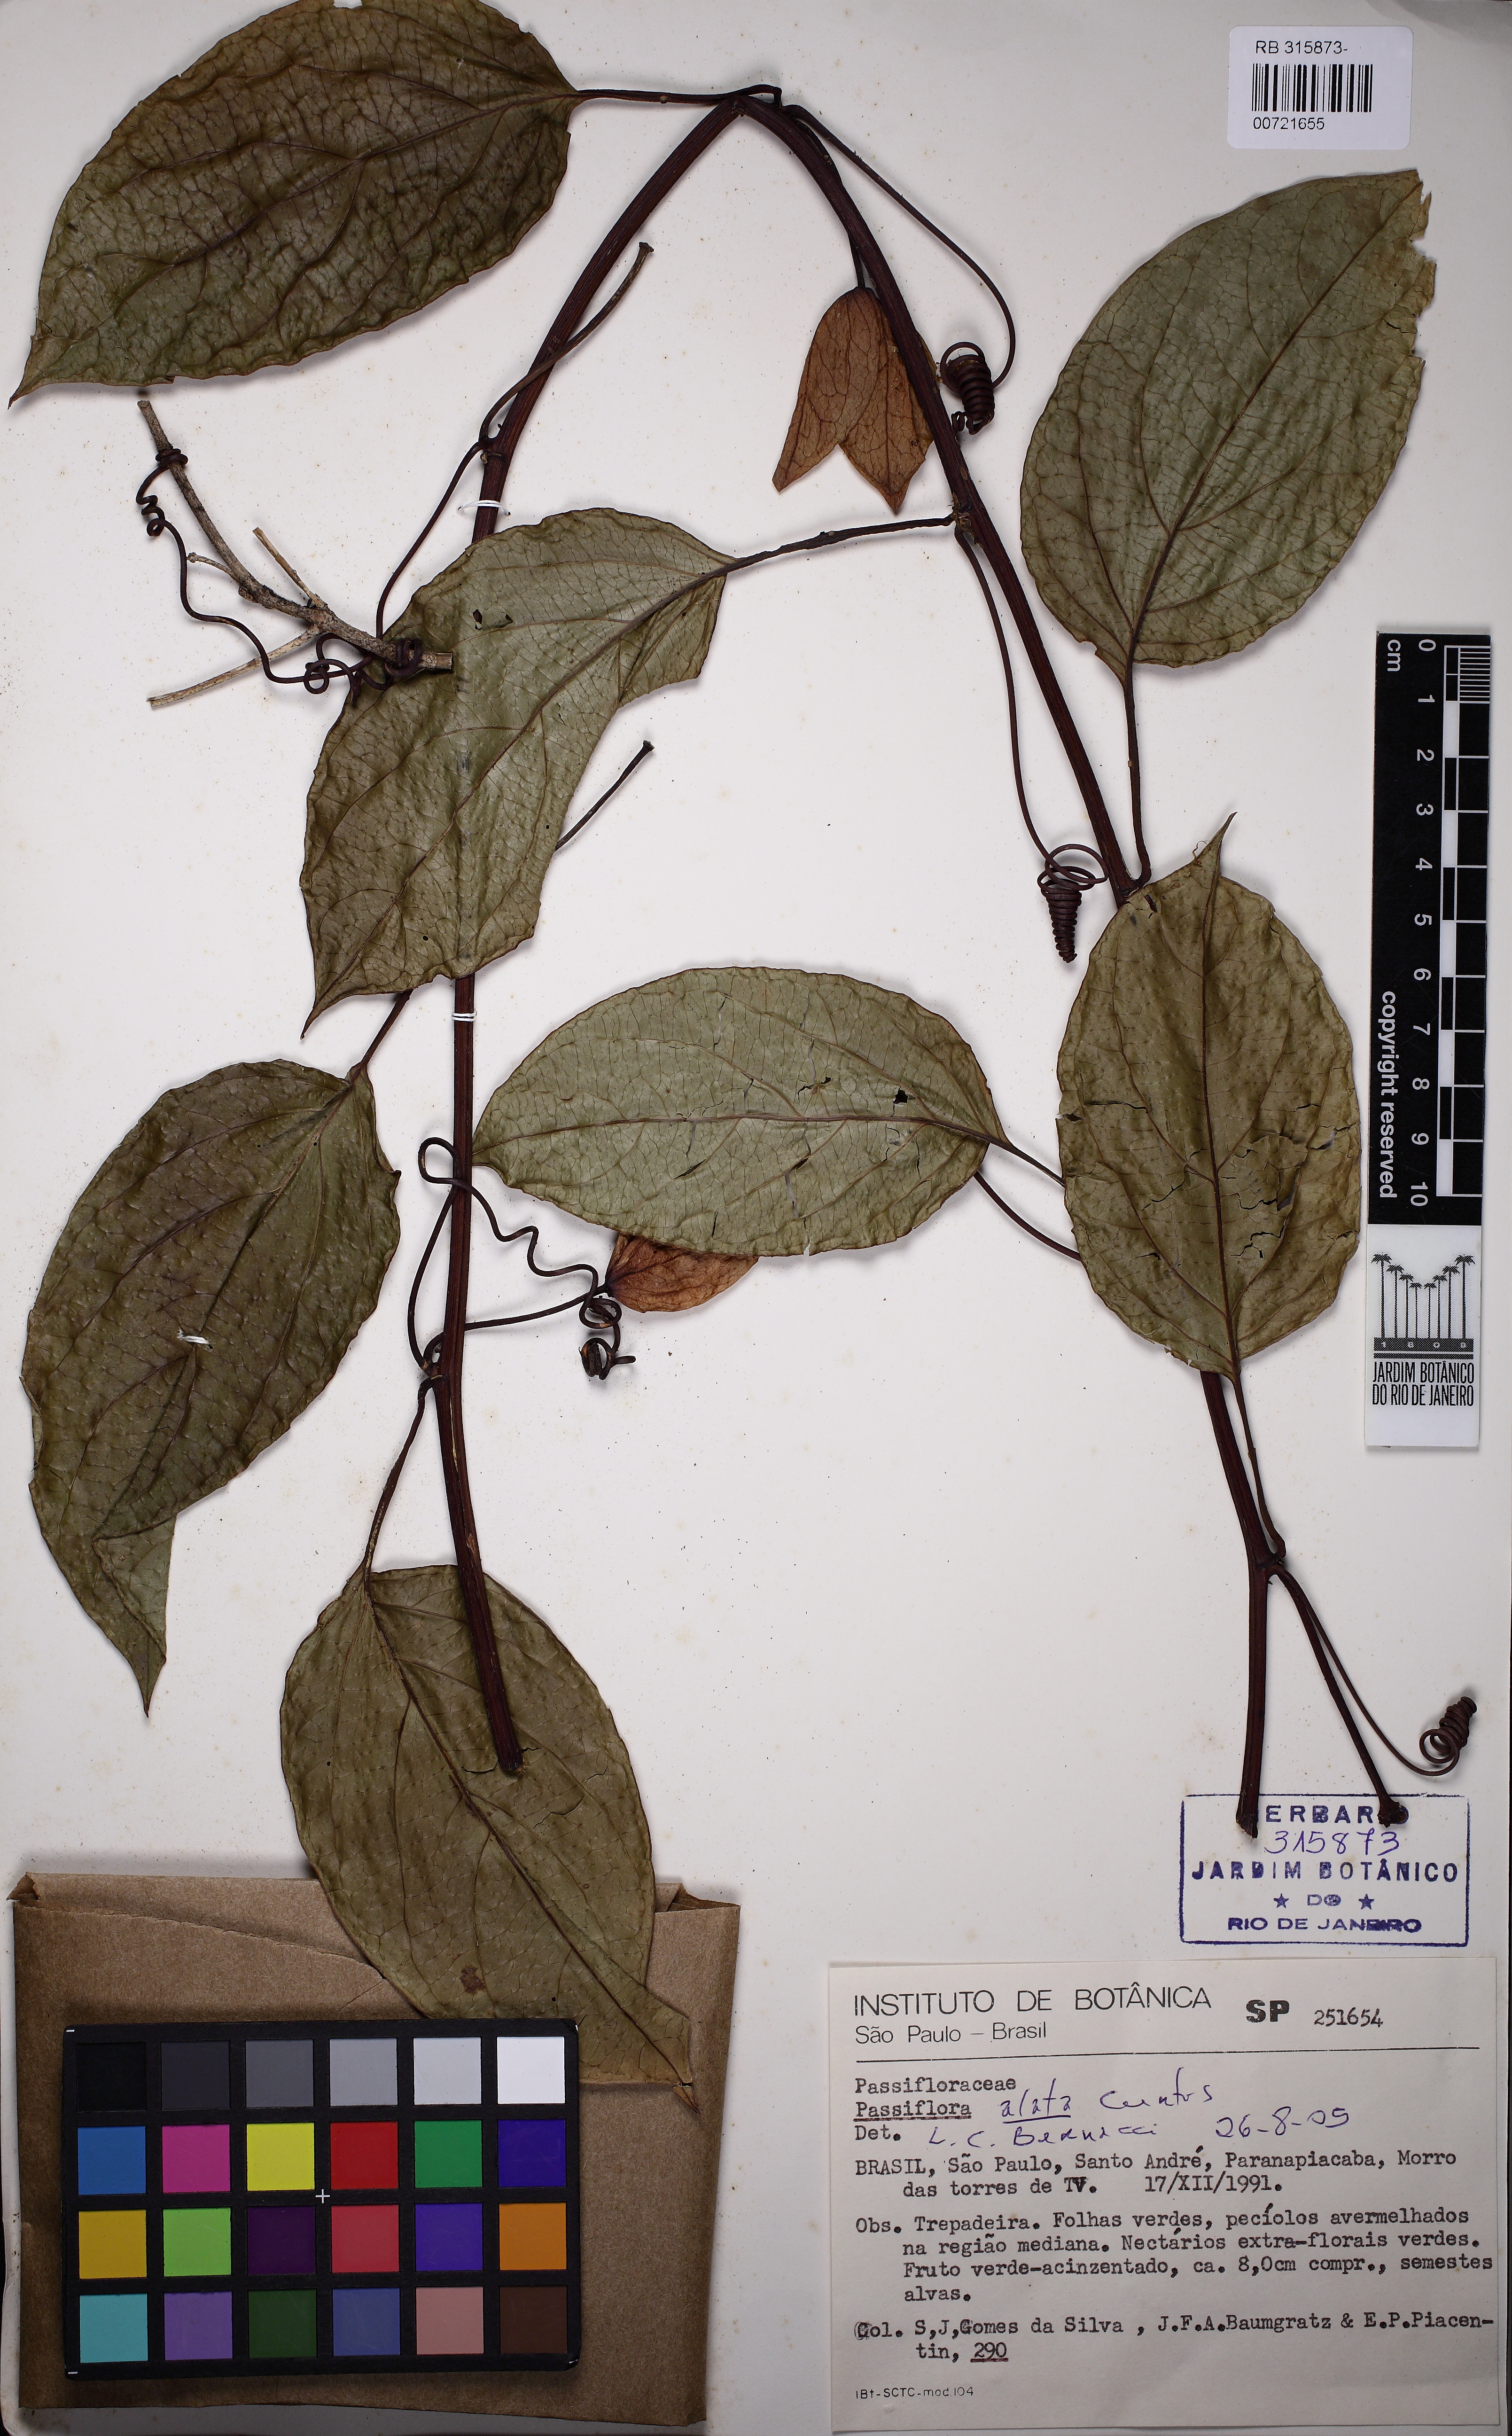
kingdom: Plantae
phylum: Tracheophyta
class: Magnoliopsida
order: Malpighiales
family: Passifloraceae
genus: Passiflora
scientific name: Passiflora alata
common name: Wing-stemmed passion flower
